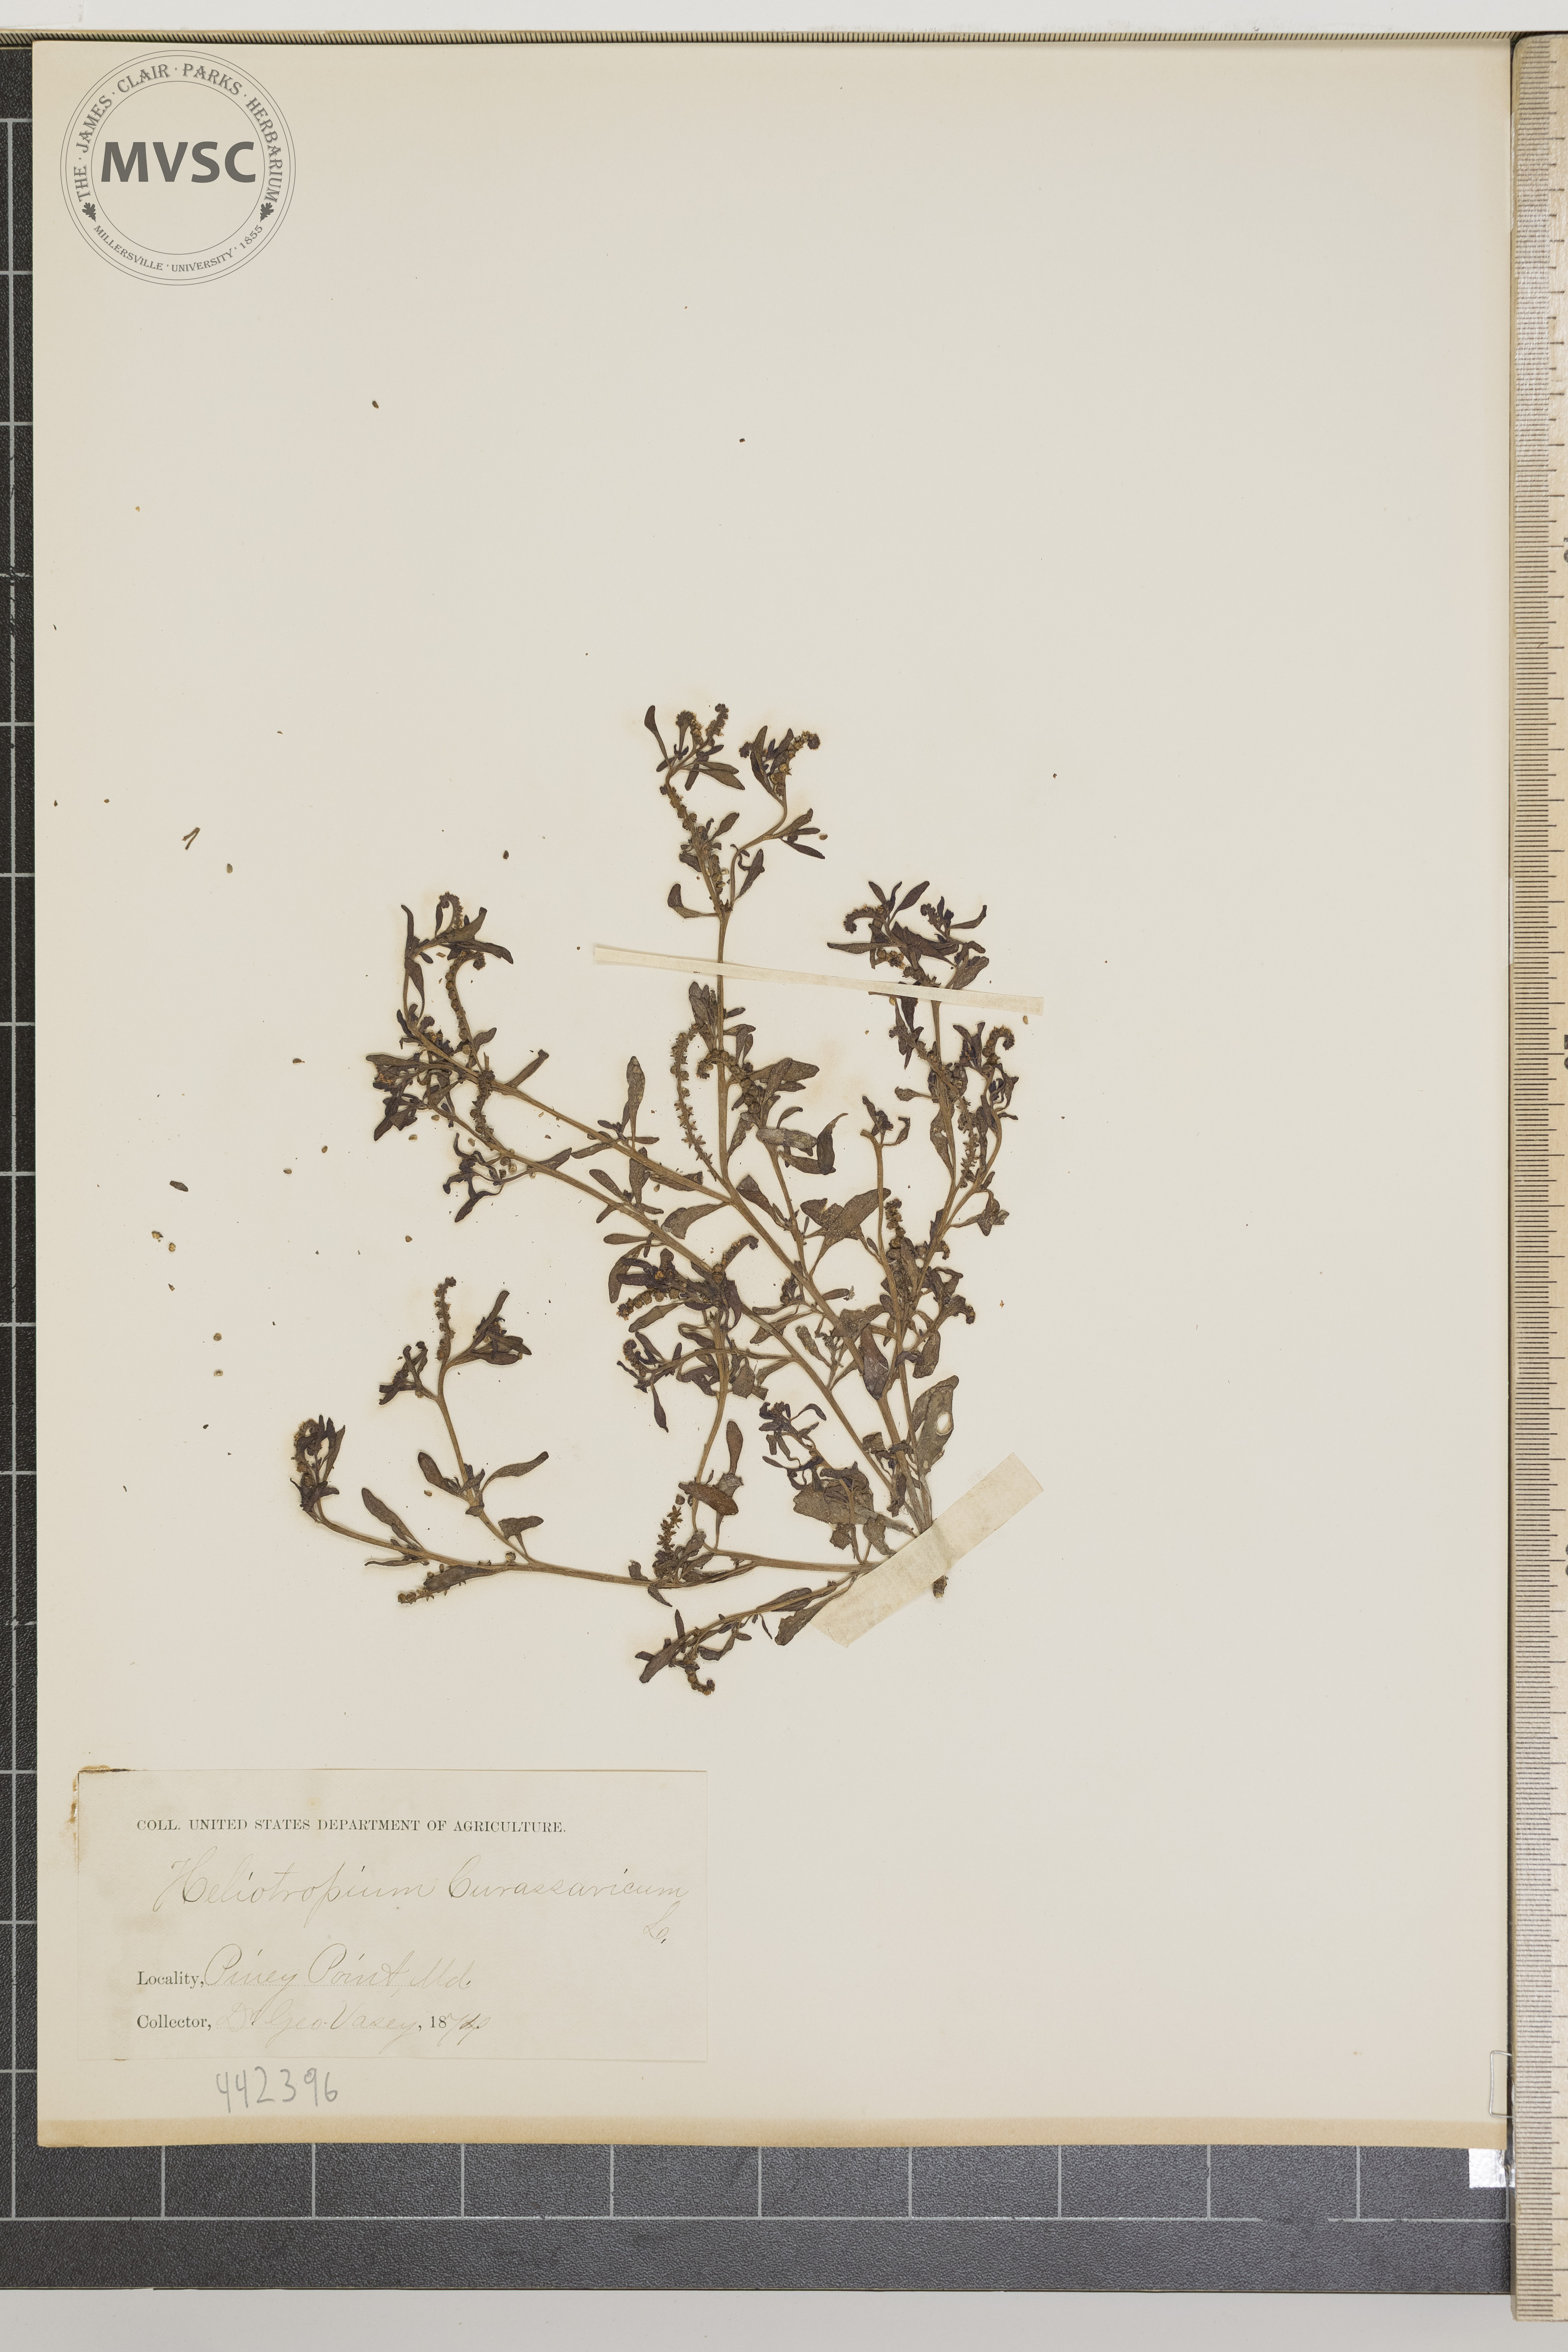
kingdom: Plantae
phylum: Tracheophyta
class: Magnoliopsida
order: Boraginales
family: Heliotropiaceae
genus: Heliotropium
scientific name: Heliotropium curassavicum
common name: Seaside heliotrope
